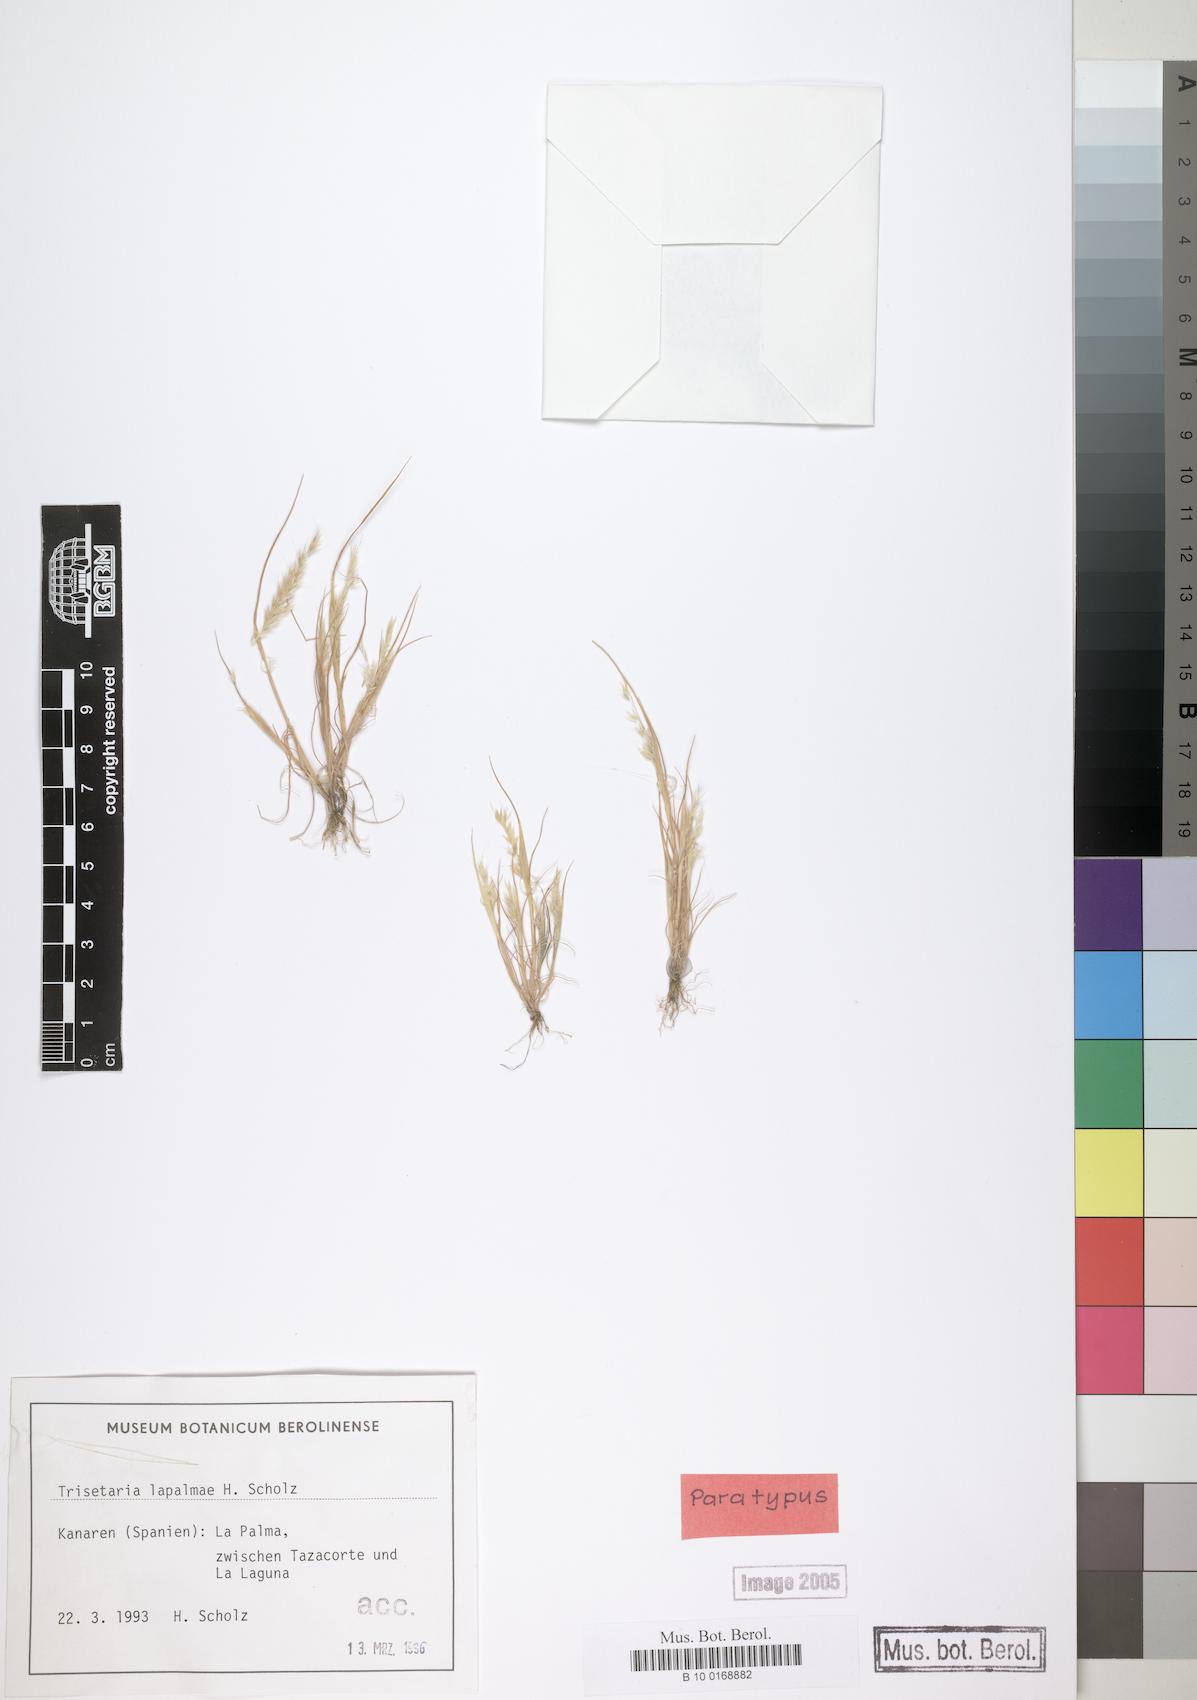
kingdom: Plantae
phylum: Tracheophyta
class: Liliopsida
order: Poales
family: Poaceae
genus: Trisetaria
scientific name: Trisetaria loeflingiana
